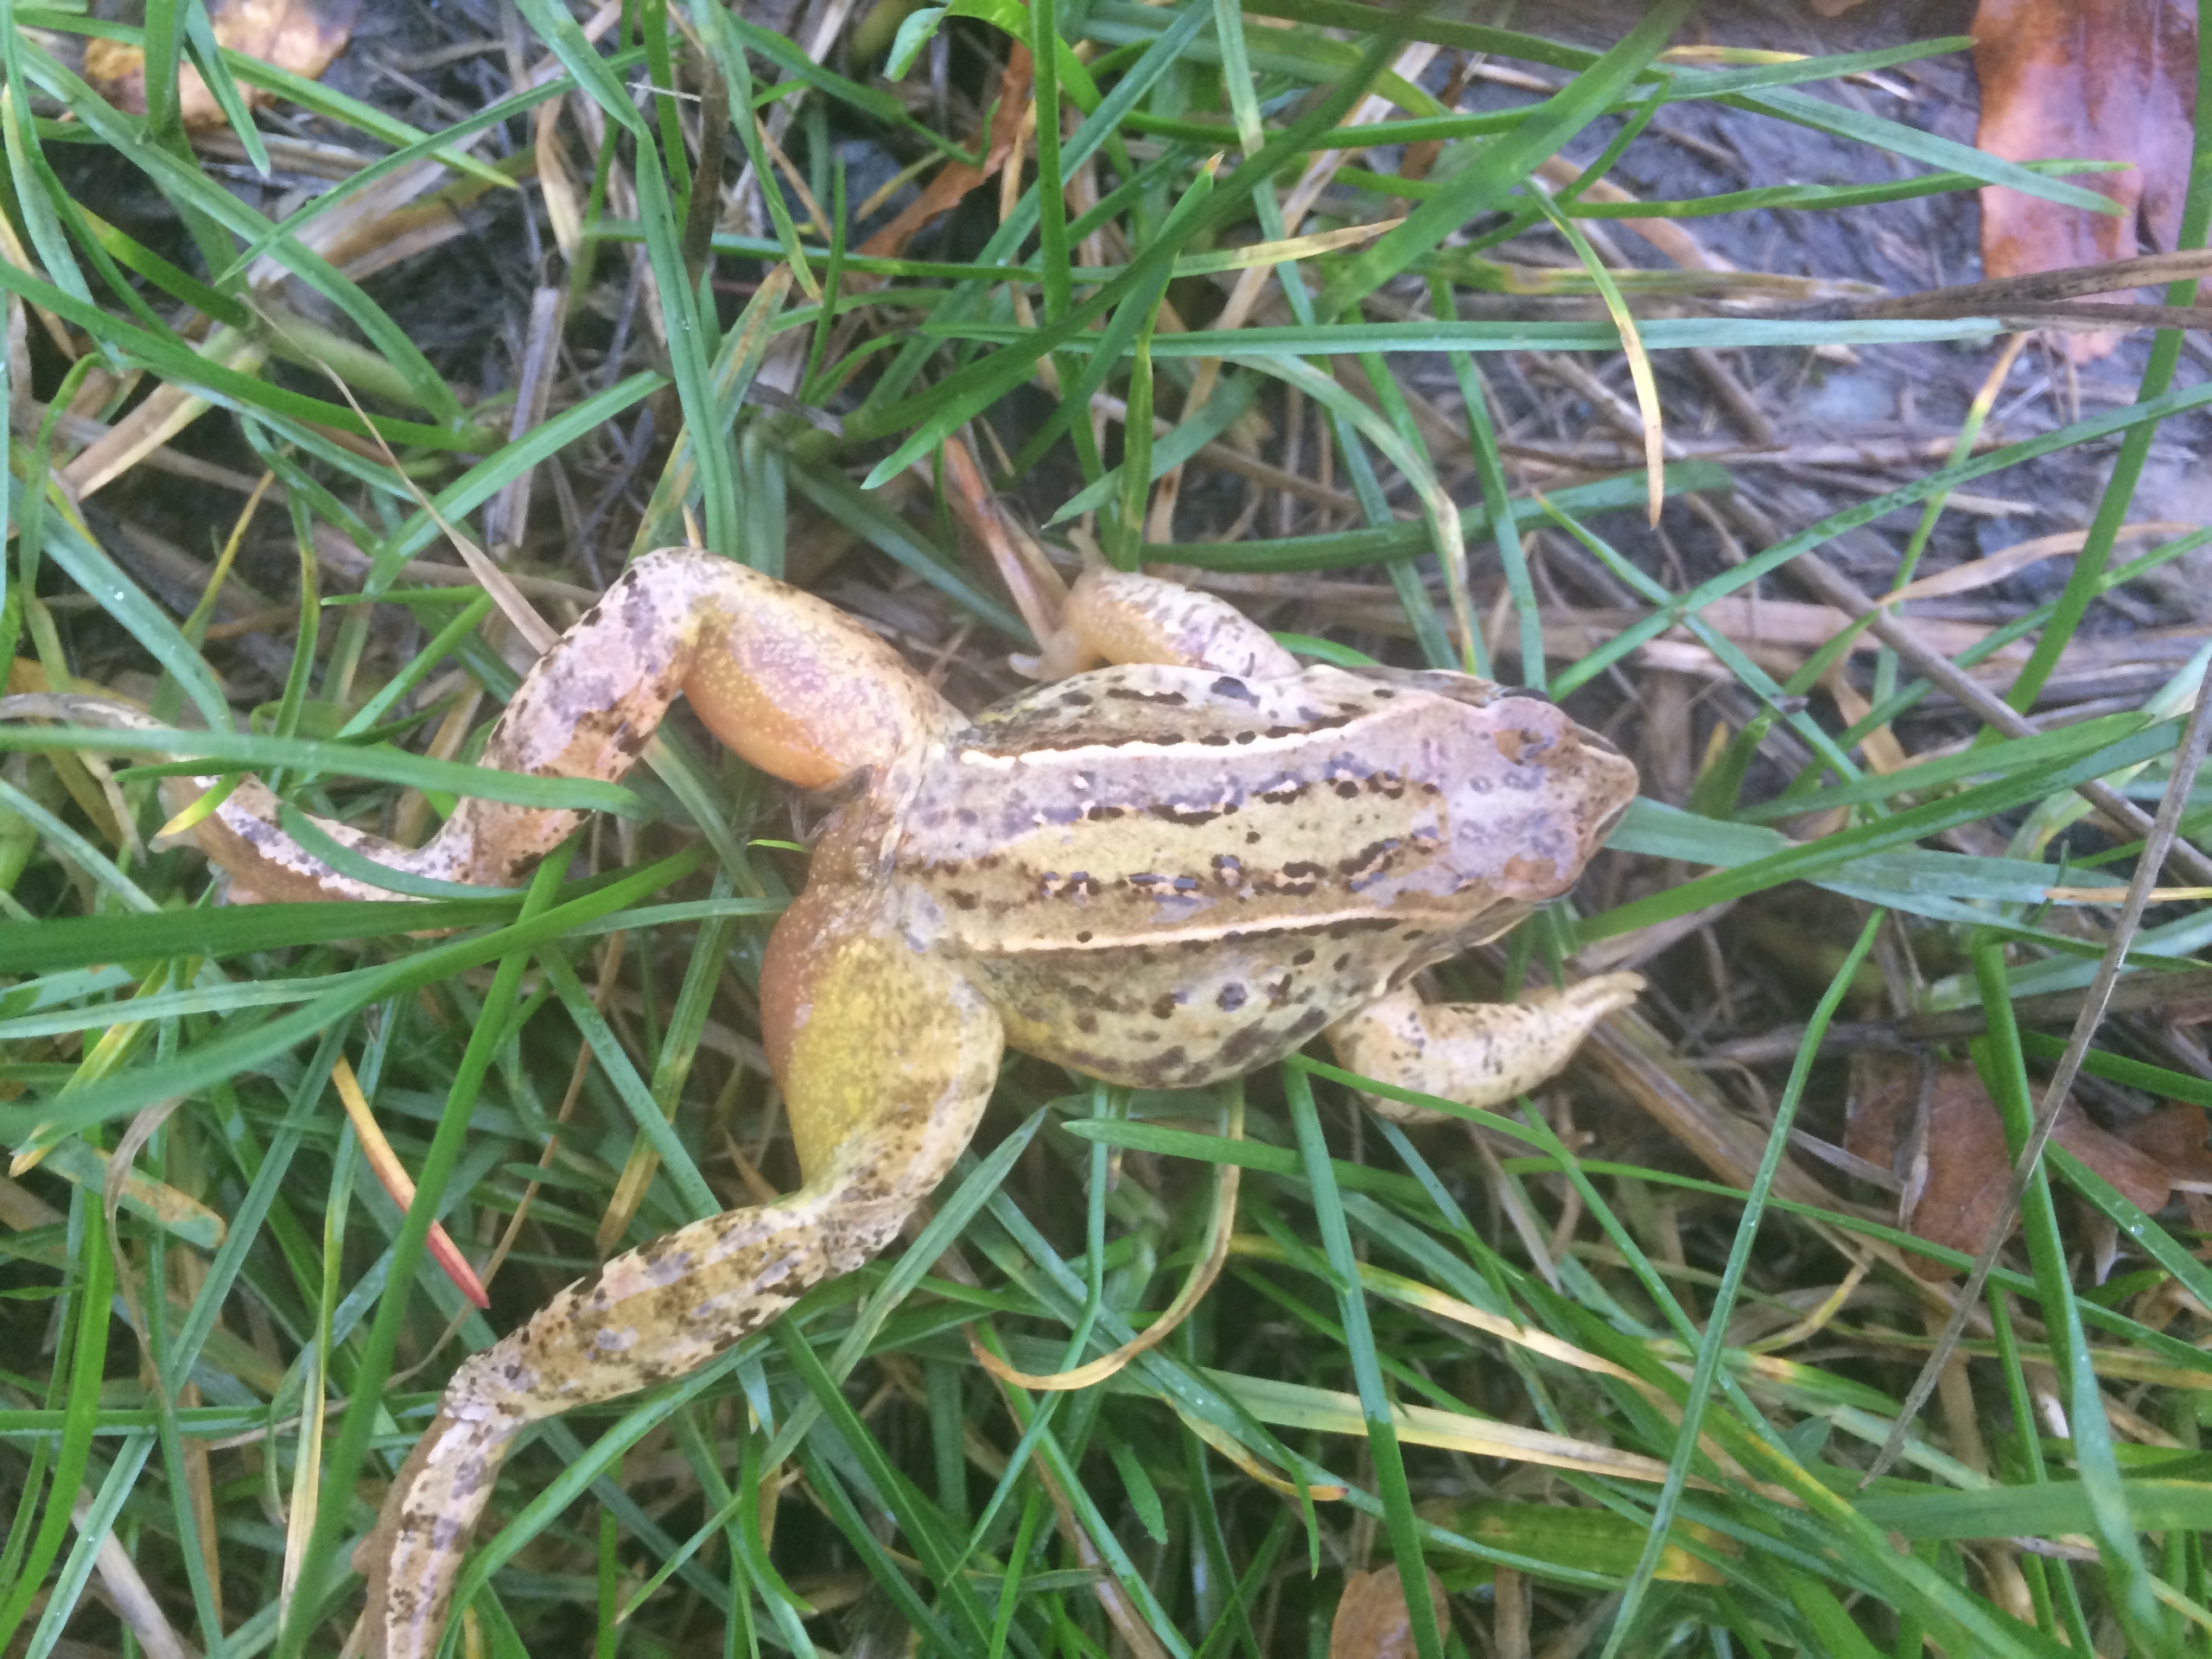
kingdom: Animalia
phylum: Chordata
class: Amphibia
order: Anura
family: Ranidae
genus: Rana
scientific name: Rana arvalis
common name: Spidssnudet frø
